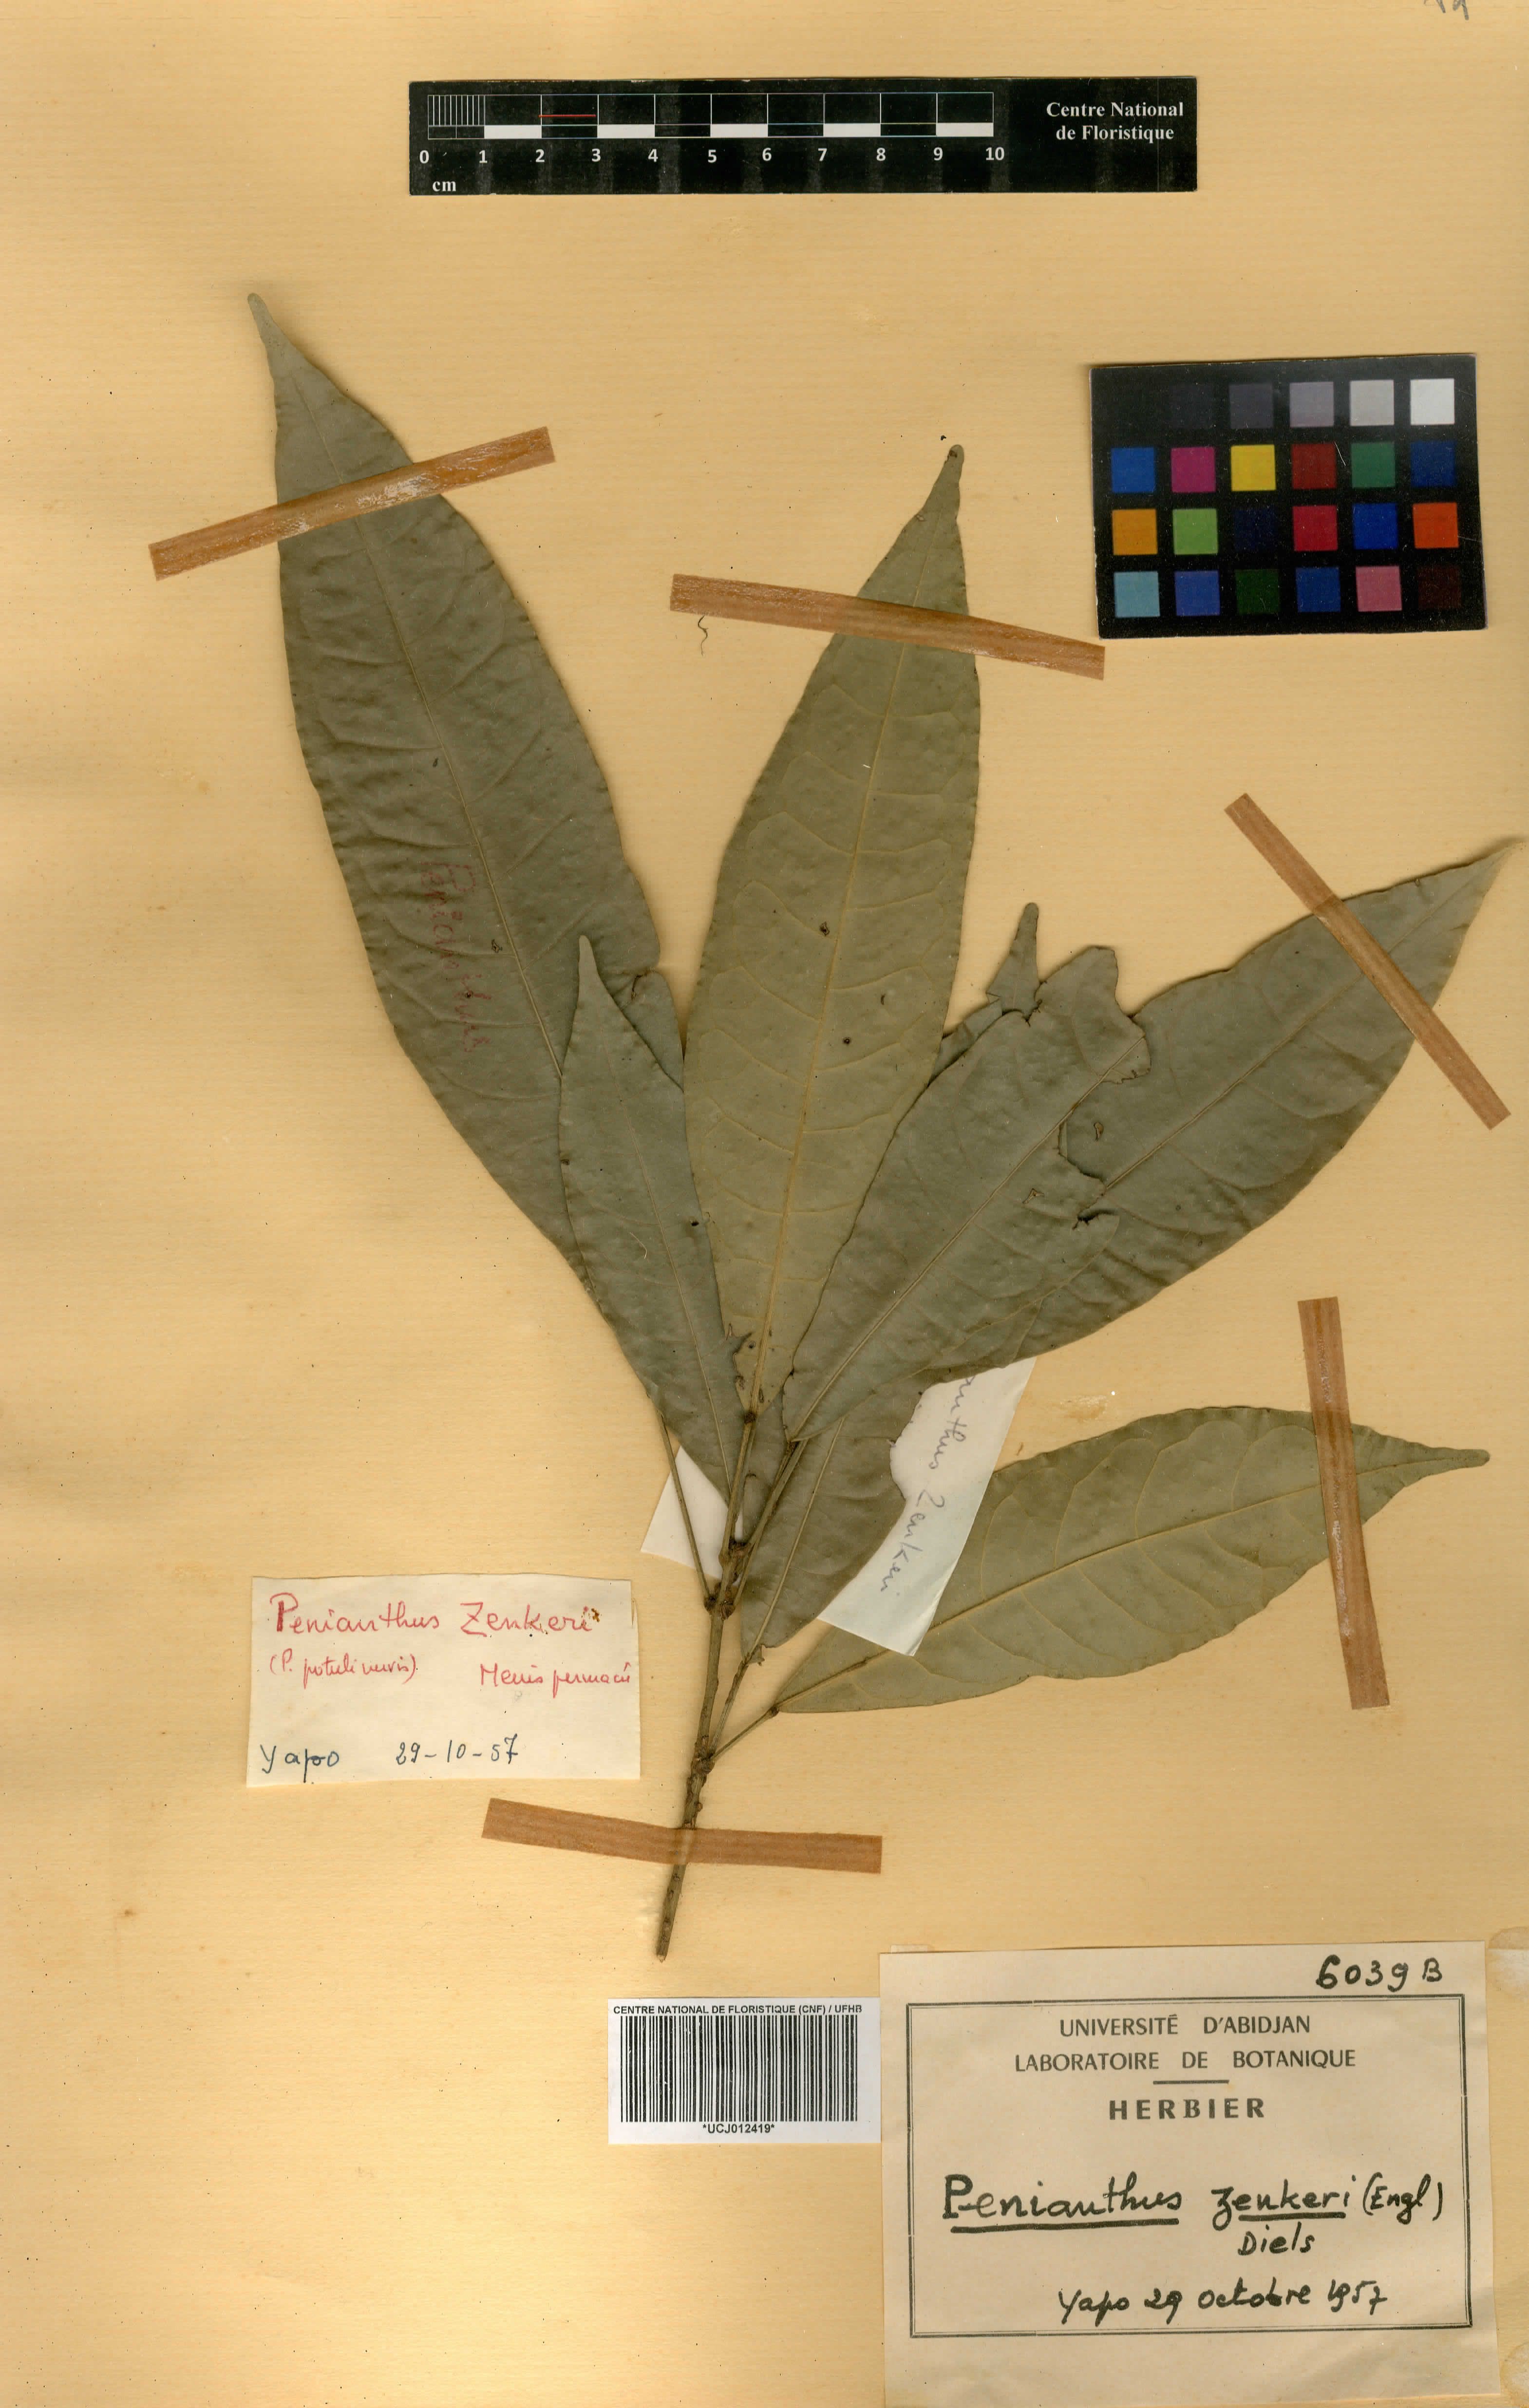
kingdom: Plantae
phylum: Tracheophyta
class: Magnoliopsida
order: Ranunculales
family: Menispermaceae
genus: Penianthus
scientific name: Penianthus zenkeri
